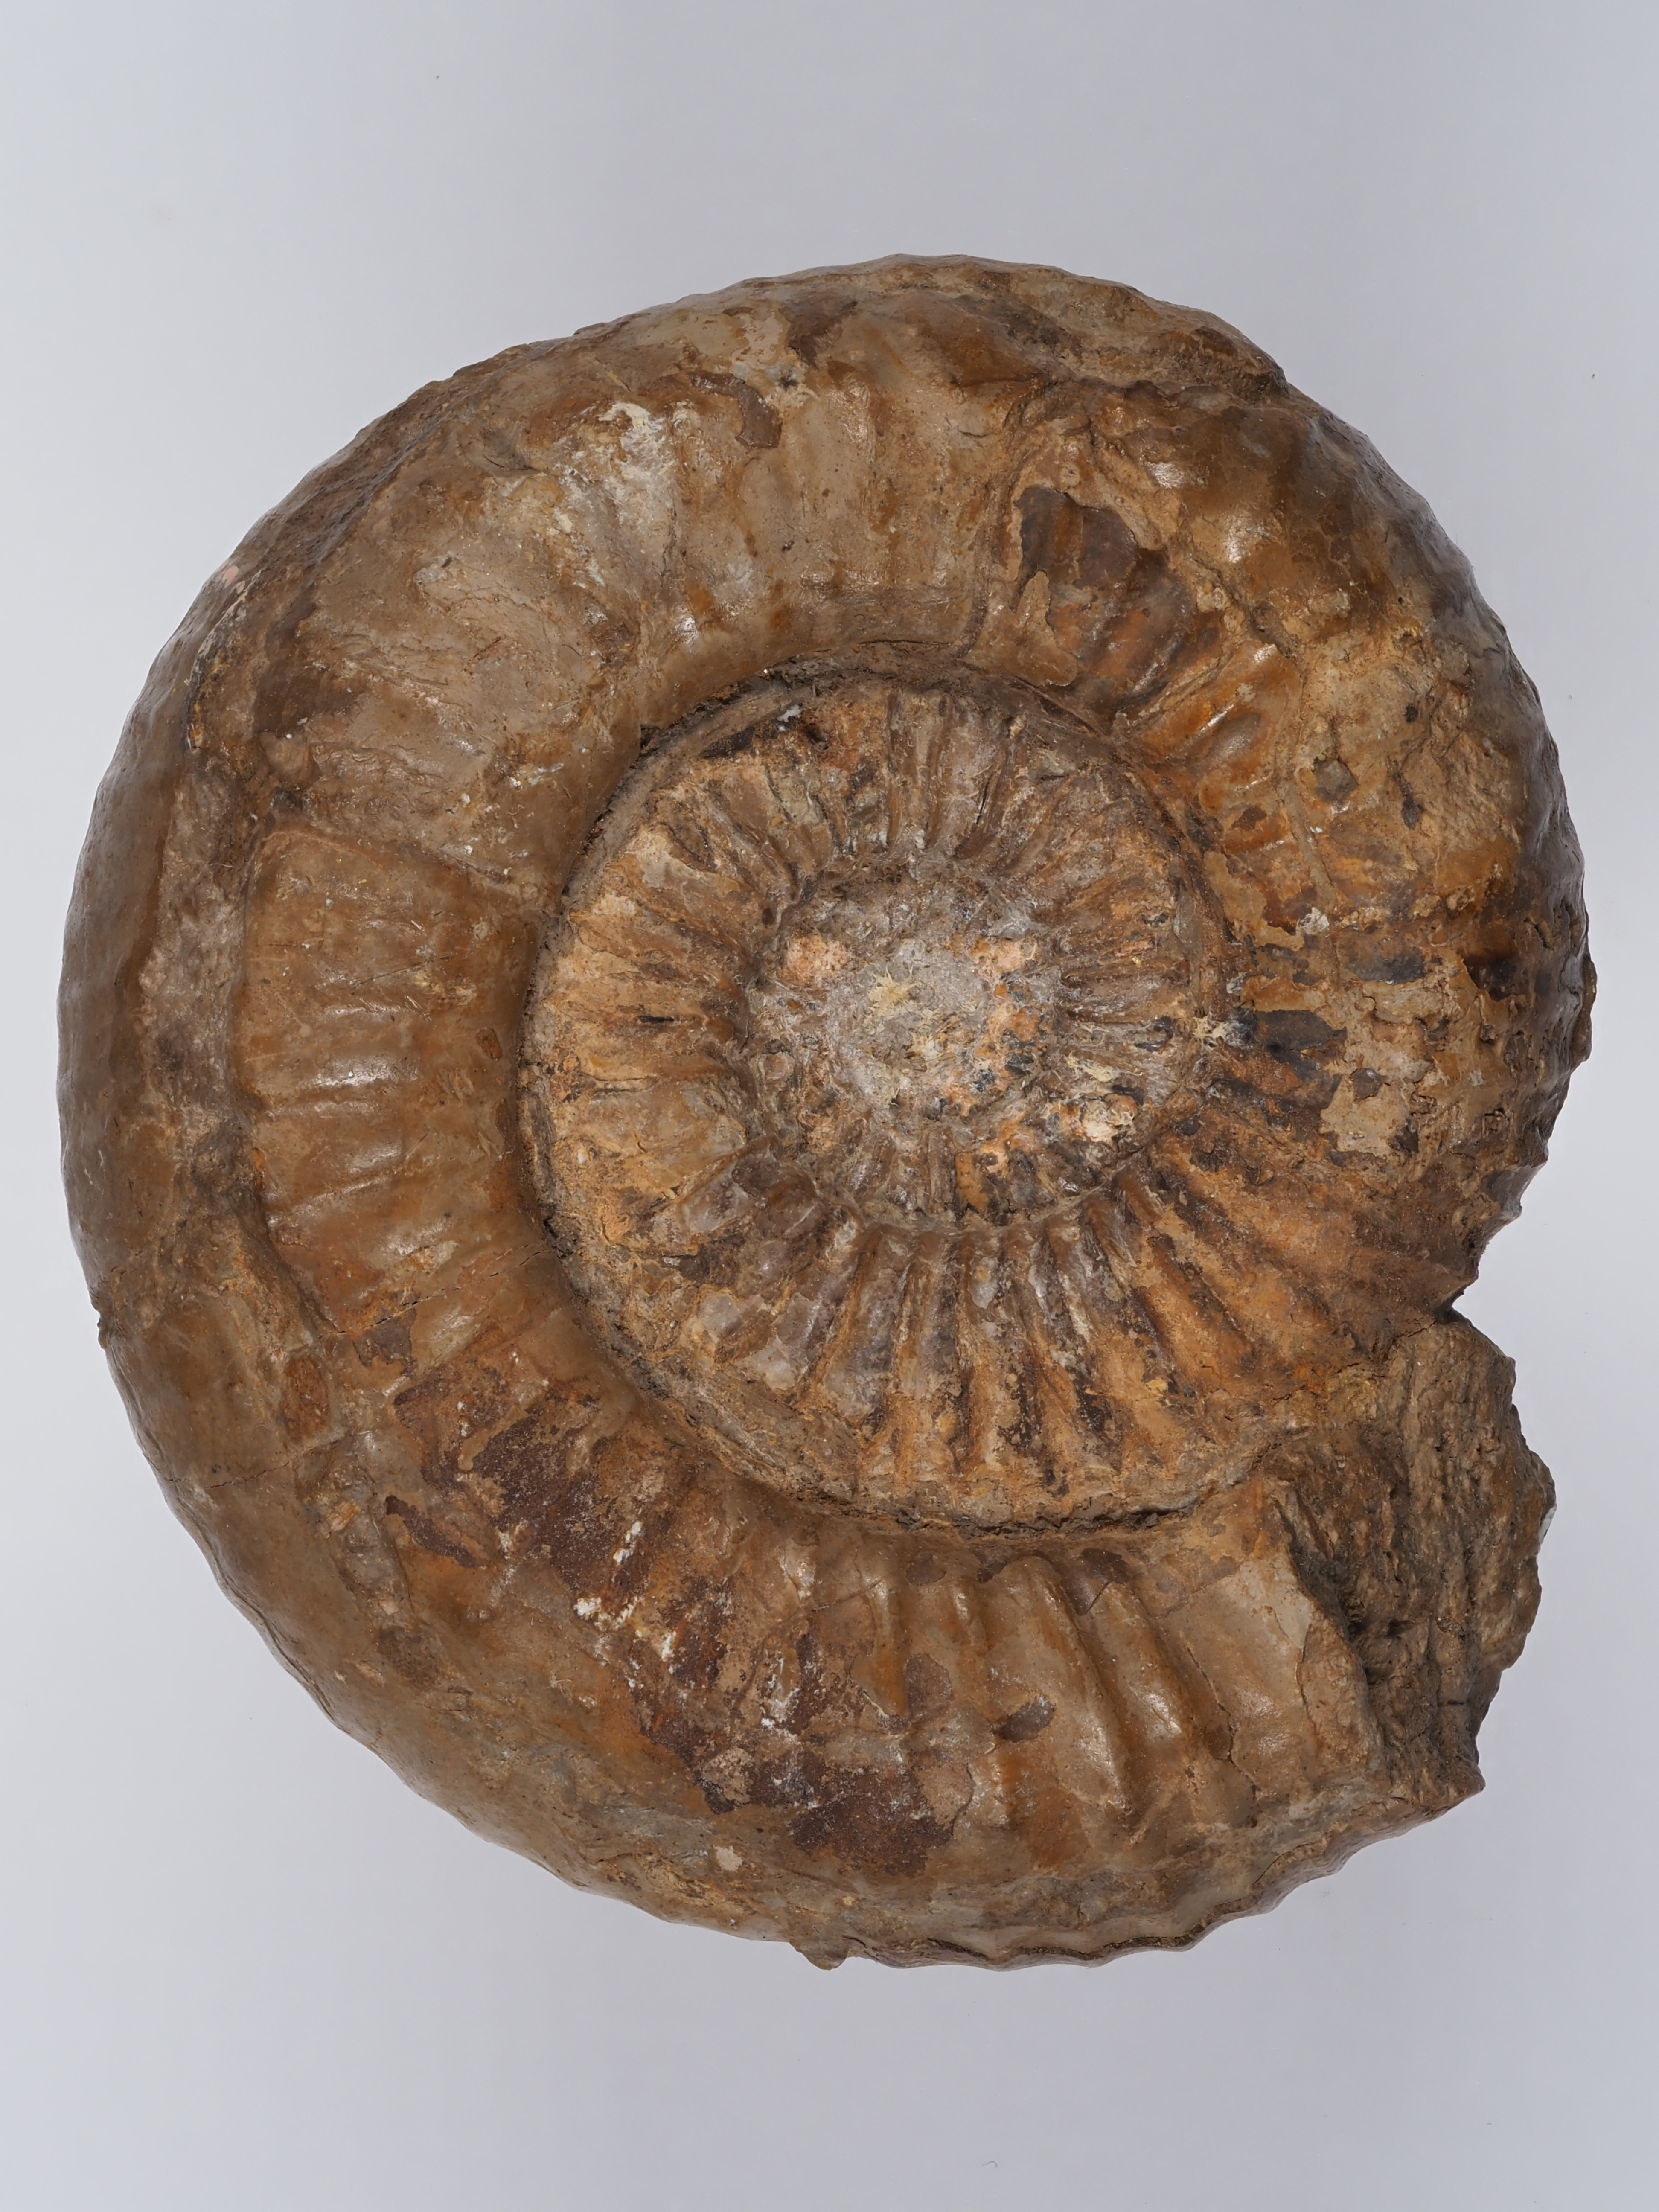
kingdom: Animalia
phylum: Mollusca
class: Cephalopoda
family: Dactylioceratidae
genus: Catacoeloceras
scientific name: Catacoeloceras
